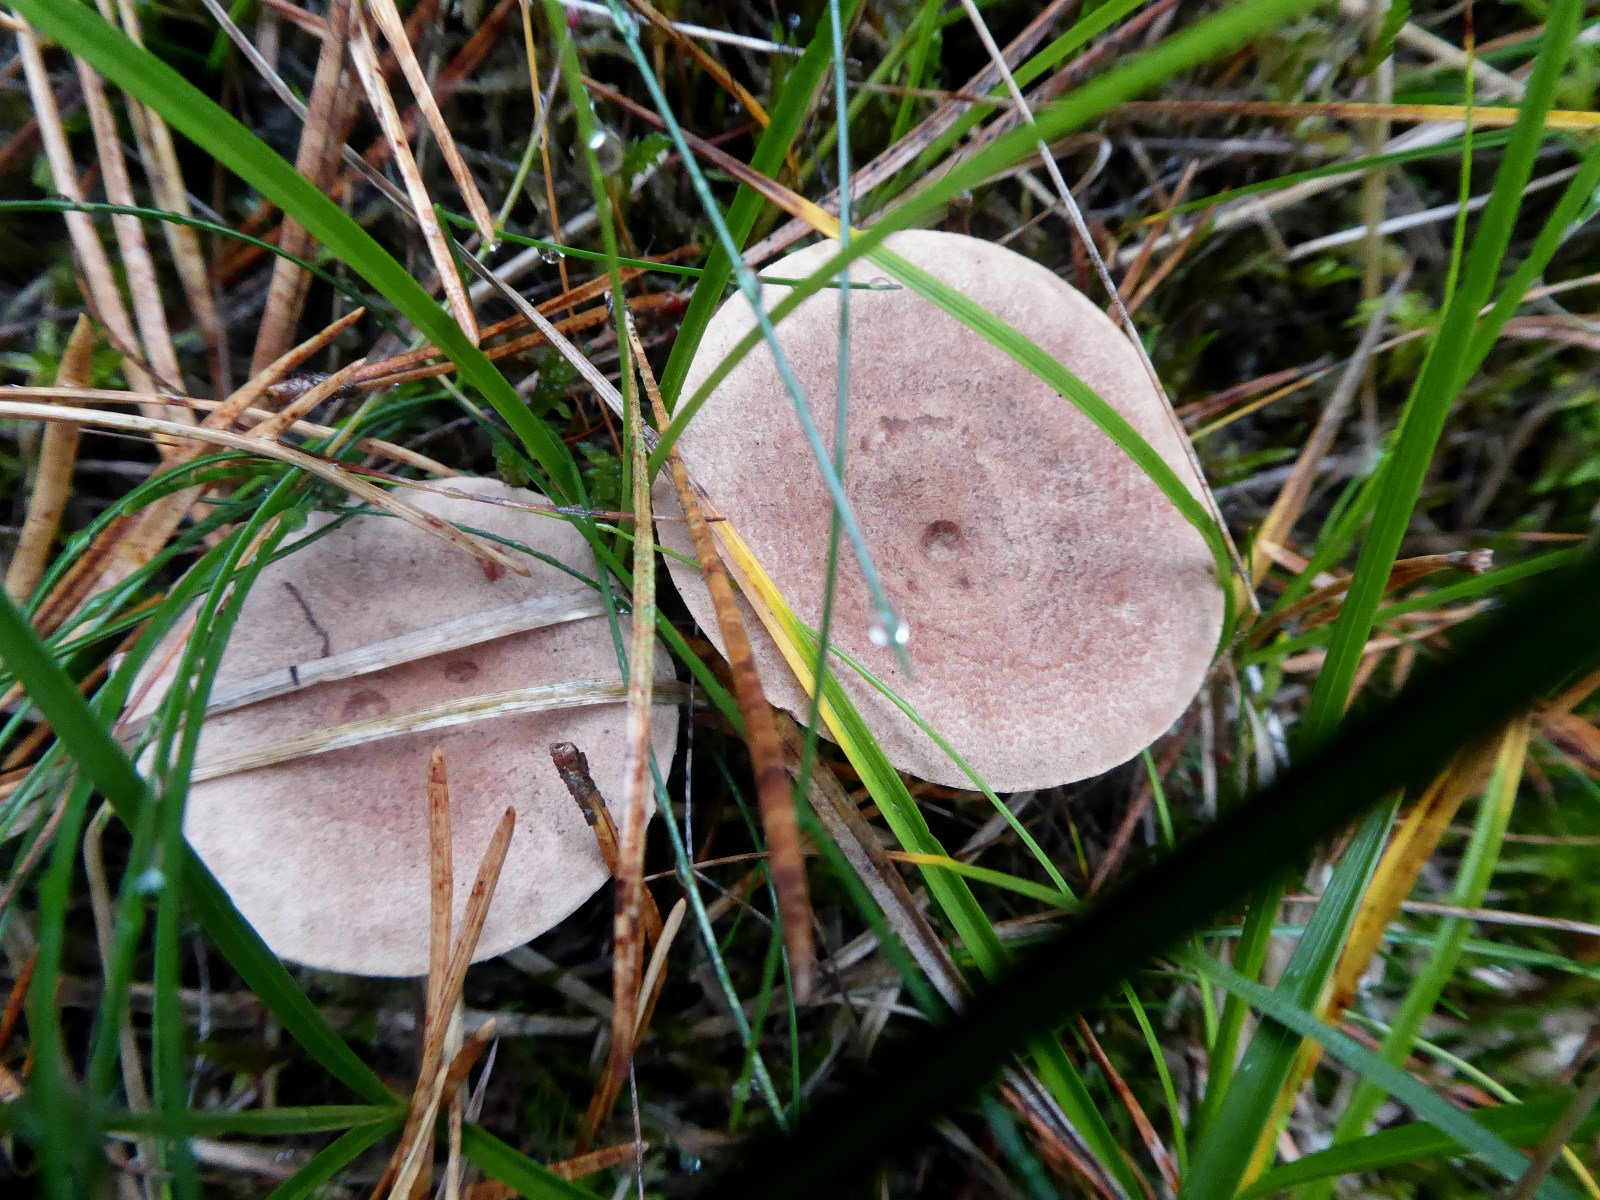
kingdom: Fungi
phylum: Basidiomycota
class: Agaricomycetes
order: Russulales
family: Russulaceae
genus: Lactarius
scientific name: Lactarius helvus
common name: mose-mælkehat
